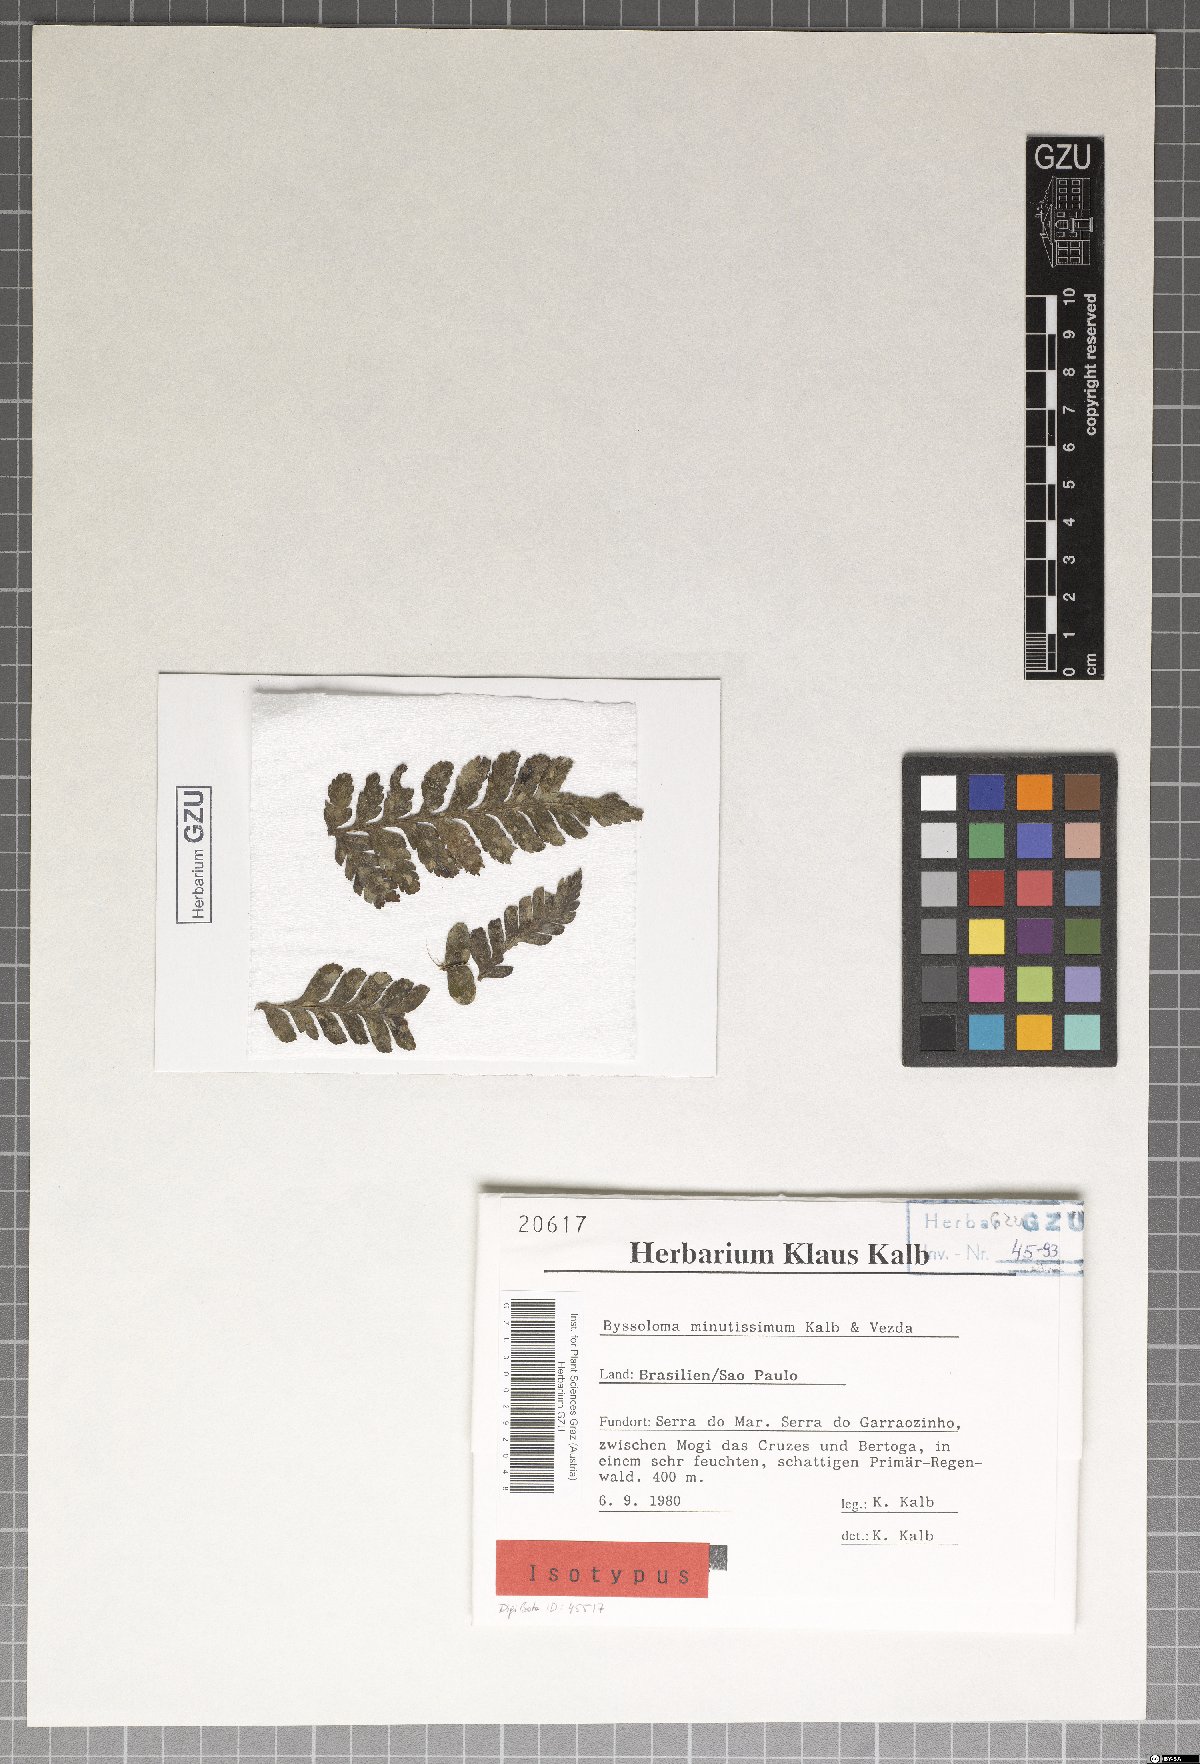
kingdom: Fungi
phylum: Ascomycota
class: Lecanoromycetes
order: Lecanorales
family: Byssolomataceae
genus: Byssoloma
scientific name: Byssoloma minutissimum
